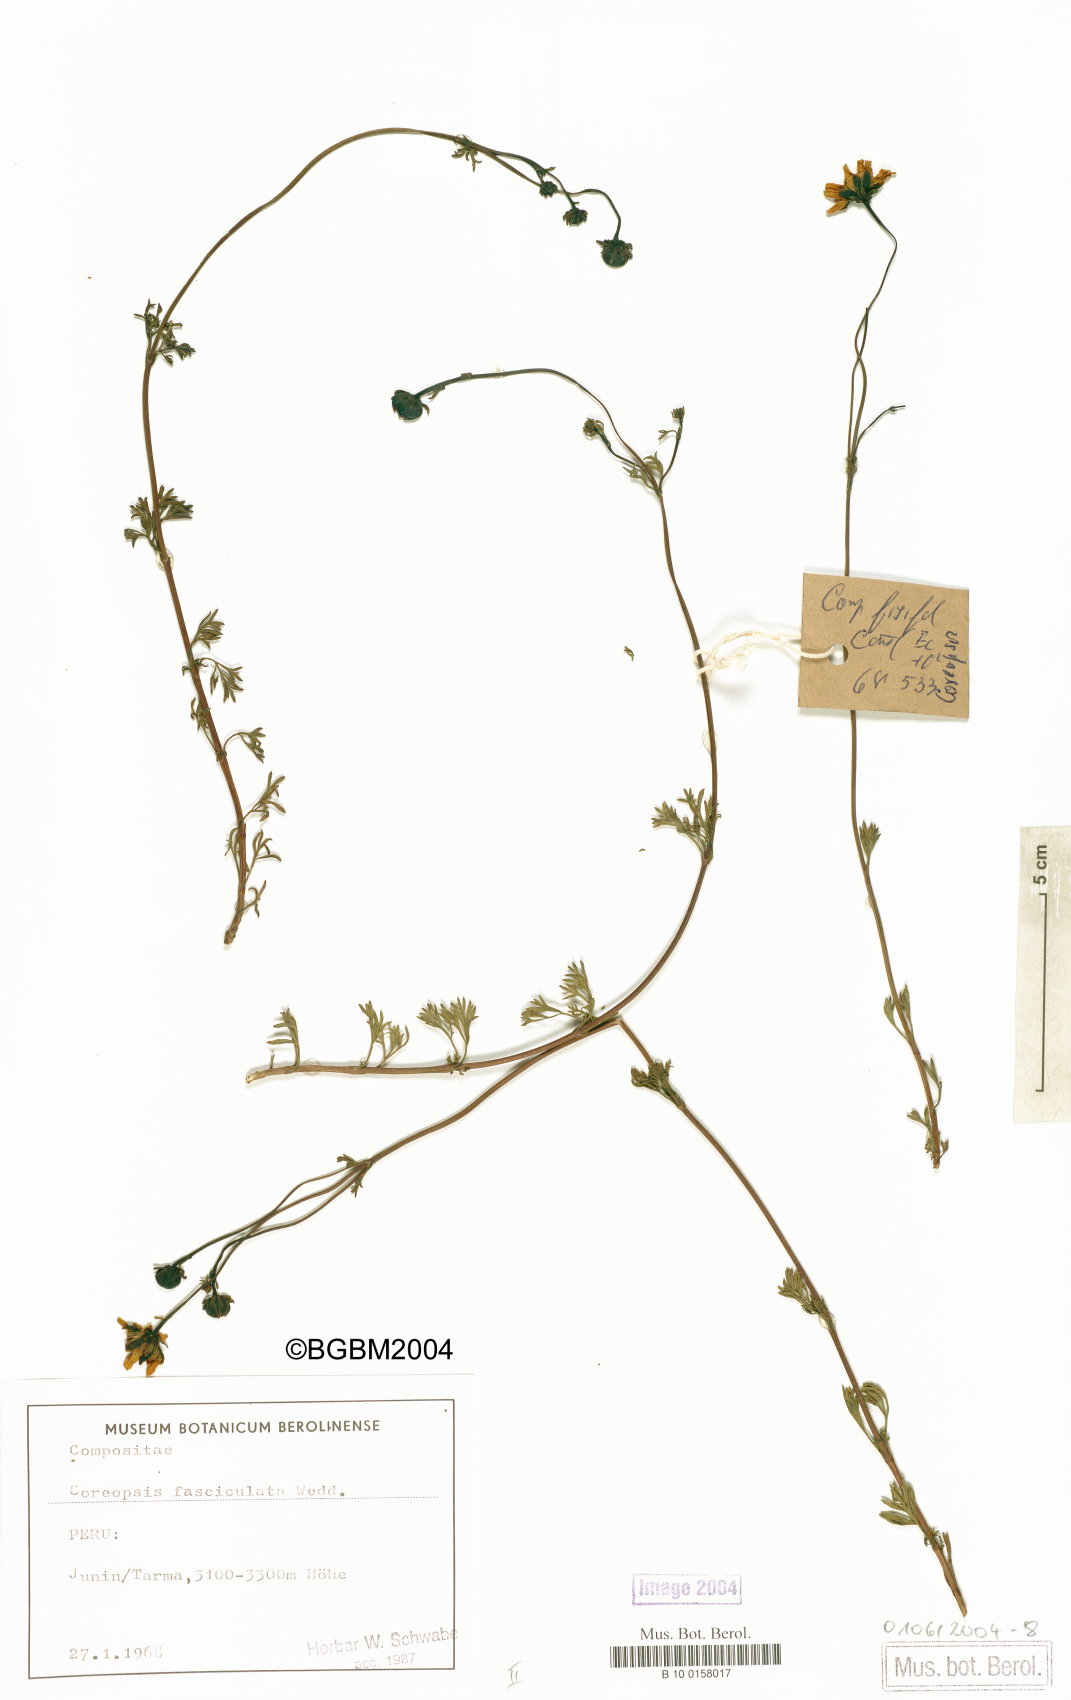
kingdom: Plantae
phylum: Tracheophyta
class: Magnoliopsida
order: Asterales
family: Asteraceae
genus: Coreopsis
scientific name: Coreopsis fasciculata
